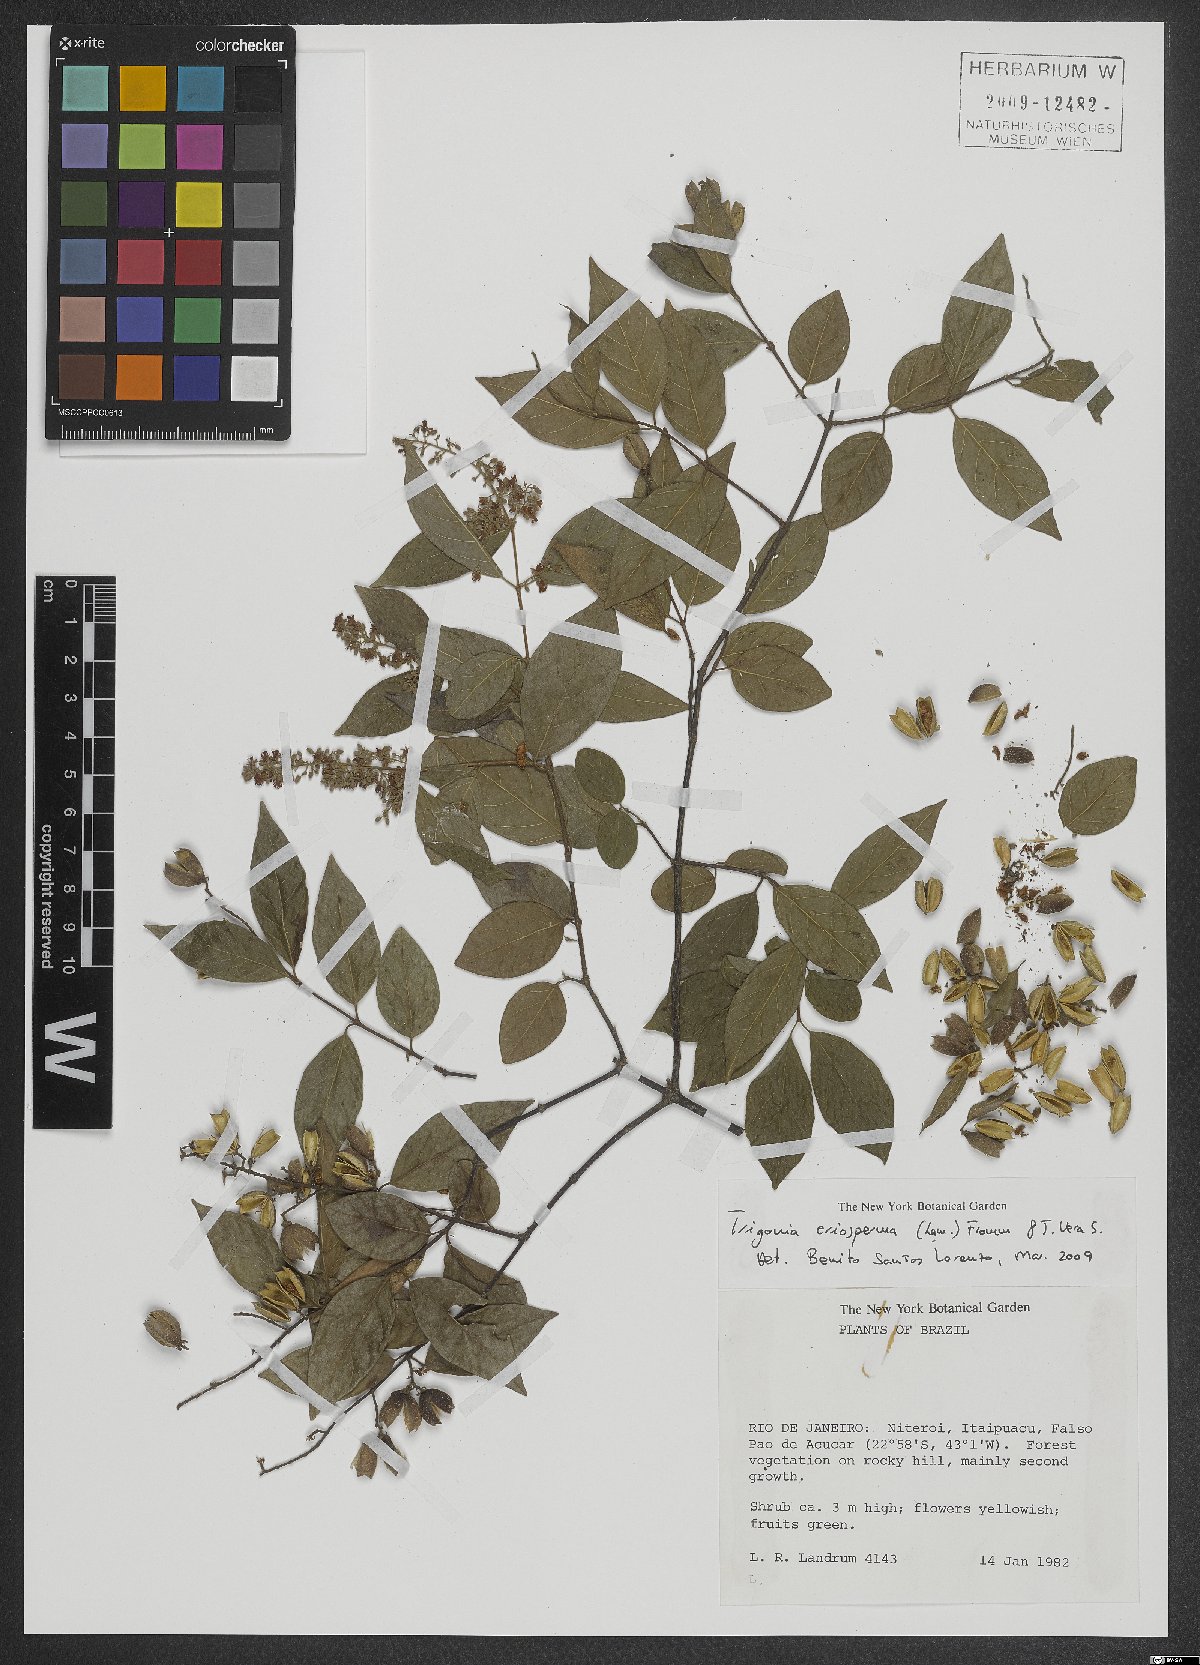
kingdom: Plantae
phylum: Tracheophyta
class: Magnoliopsida
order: Malpighiales
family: Trigoniaceae
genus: Trigonia
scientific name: Trigonia eriosperma
